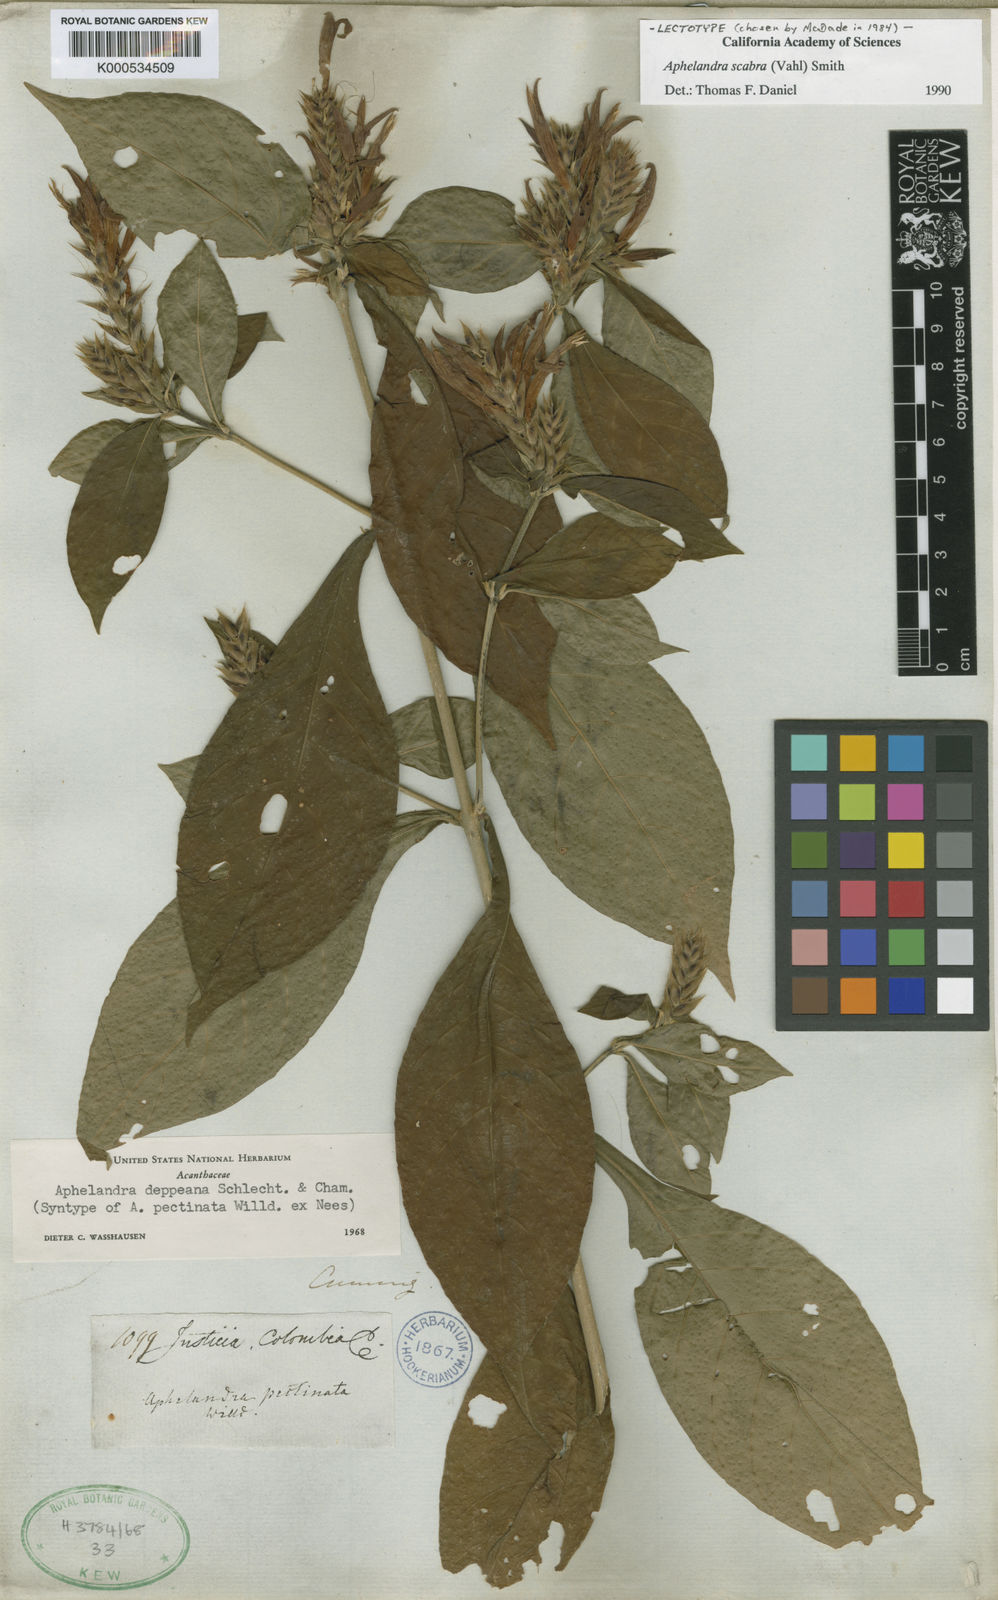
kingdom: Plantae
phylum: Tracheophyta
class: Magnoliopsida
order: Lamiales
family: Acanthaceae
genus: Aphelandra
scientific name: Aphelandra scabra
